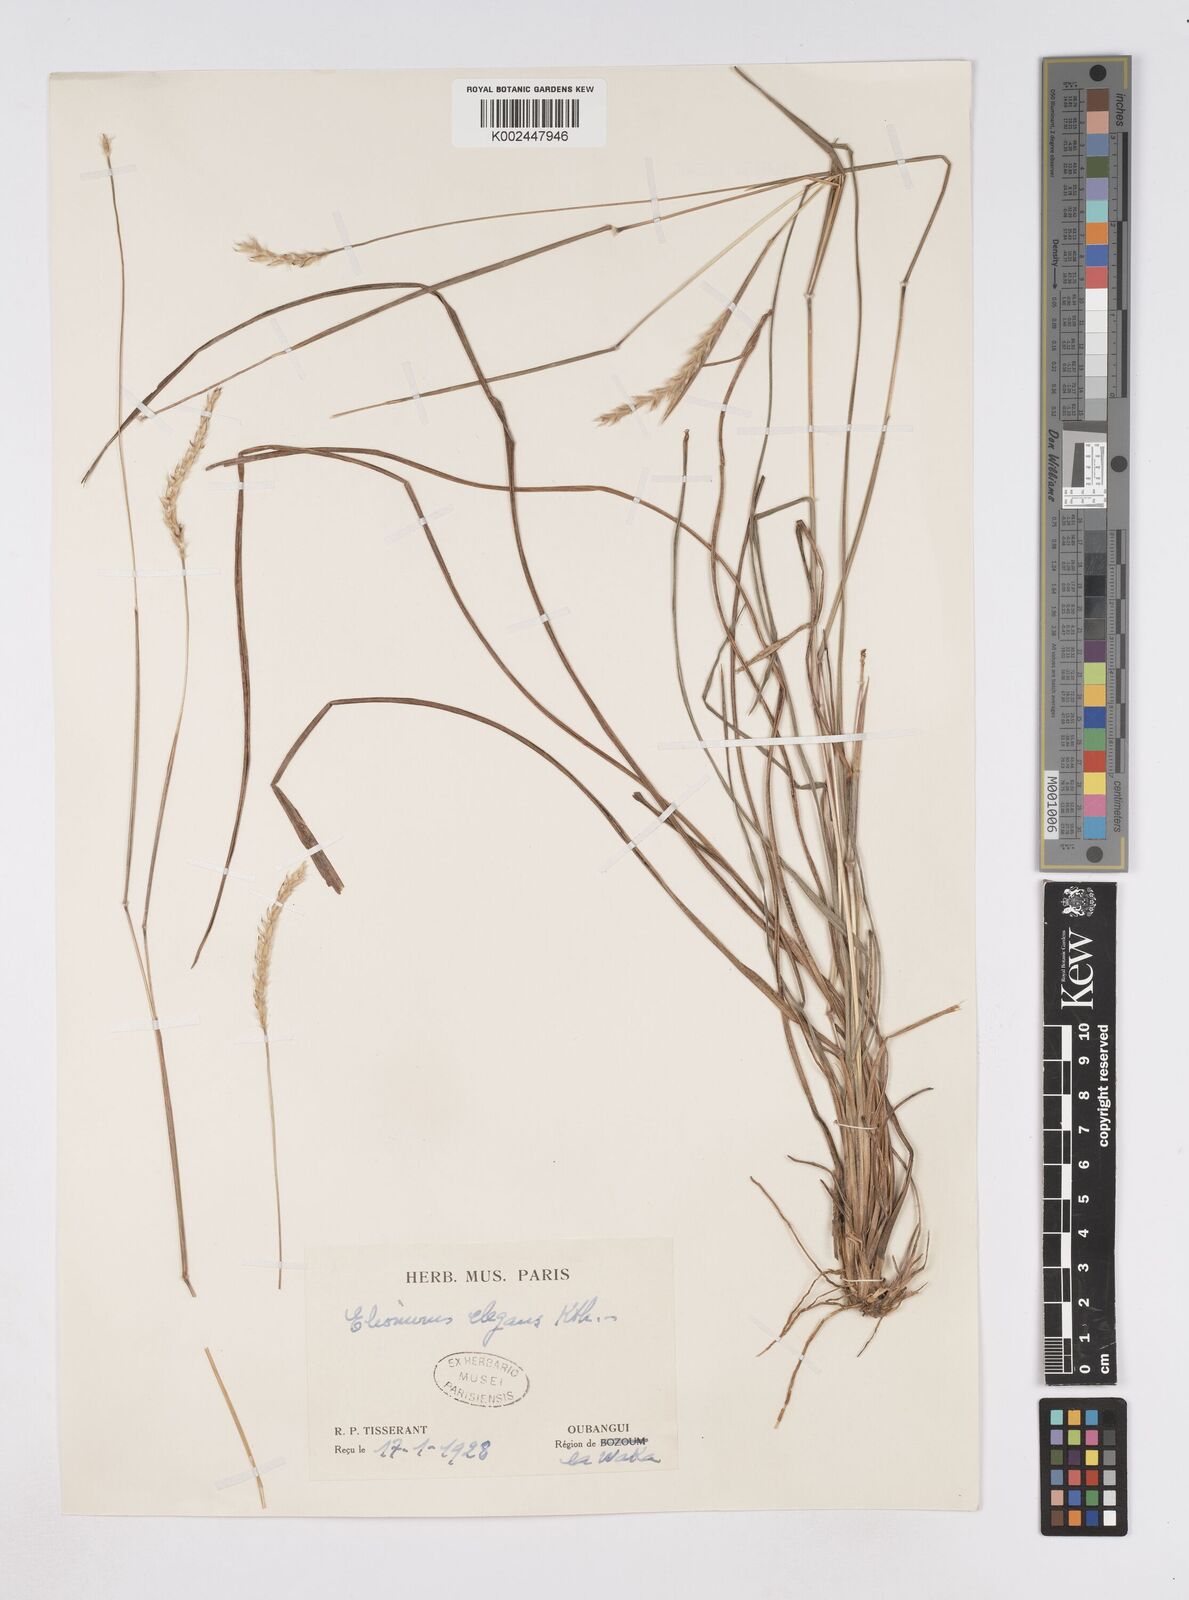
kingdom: Plantae
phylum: Tracheophyta
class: Liliopsida
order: Poales
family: Poaceae
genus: Elionurus
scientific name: Elionurus hirtifolius
